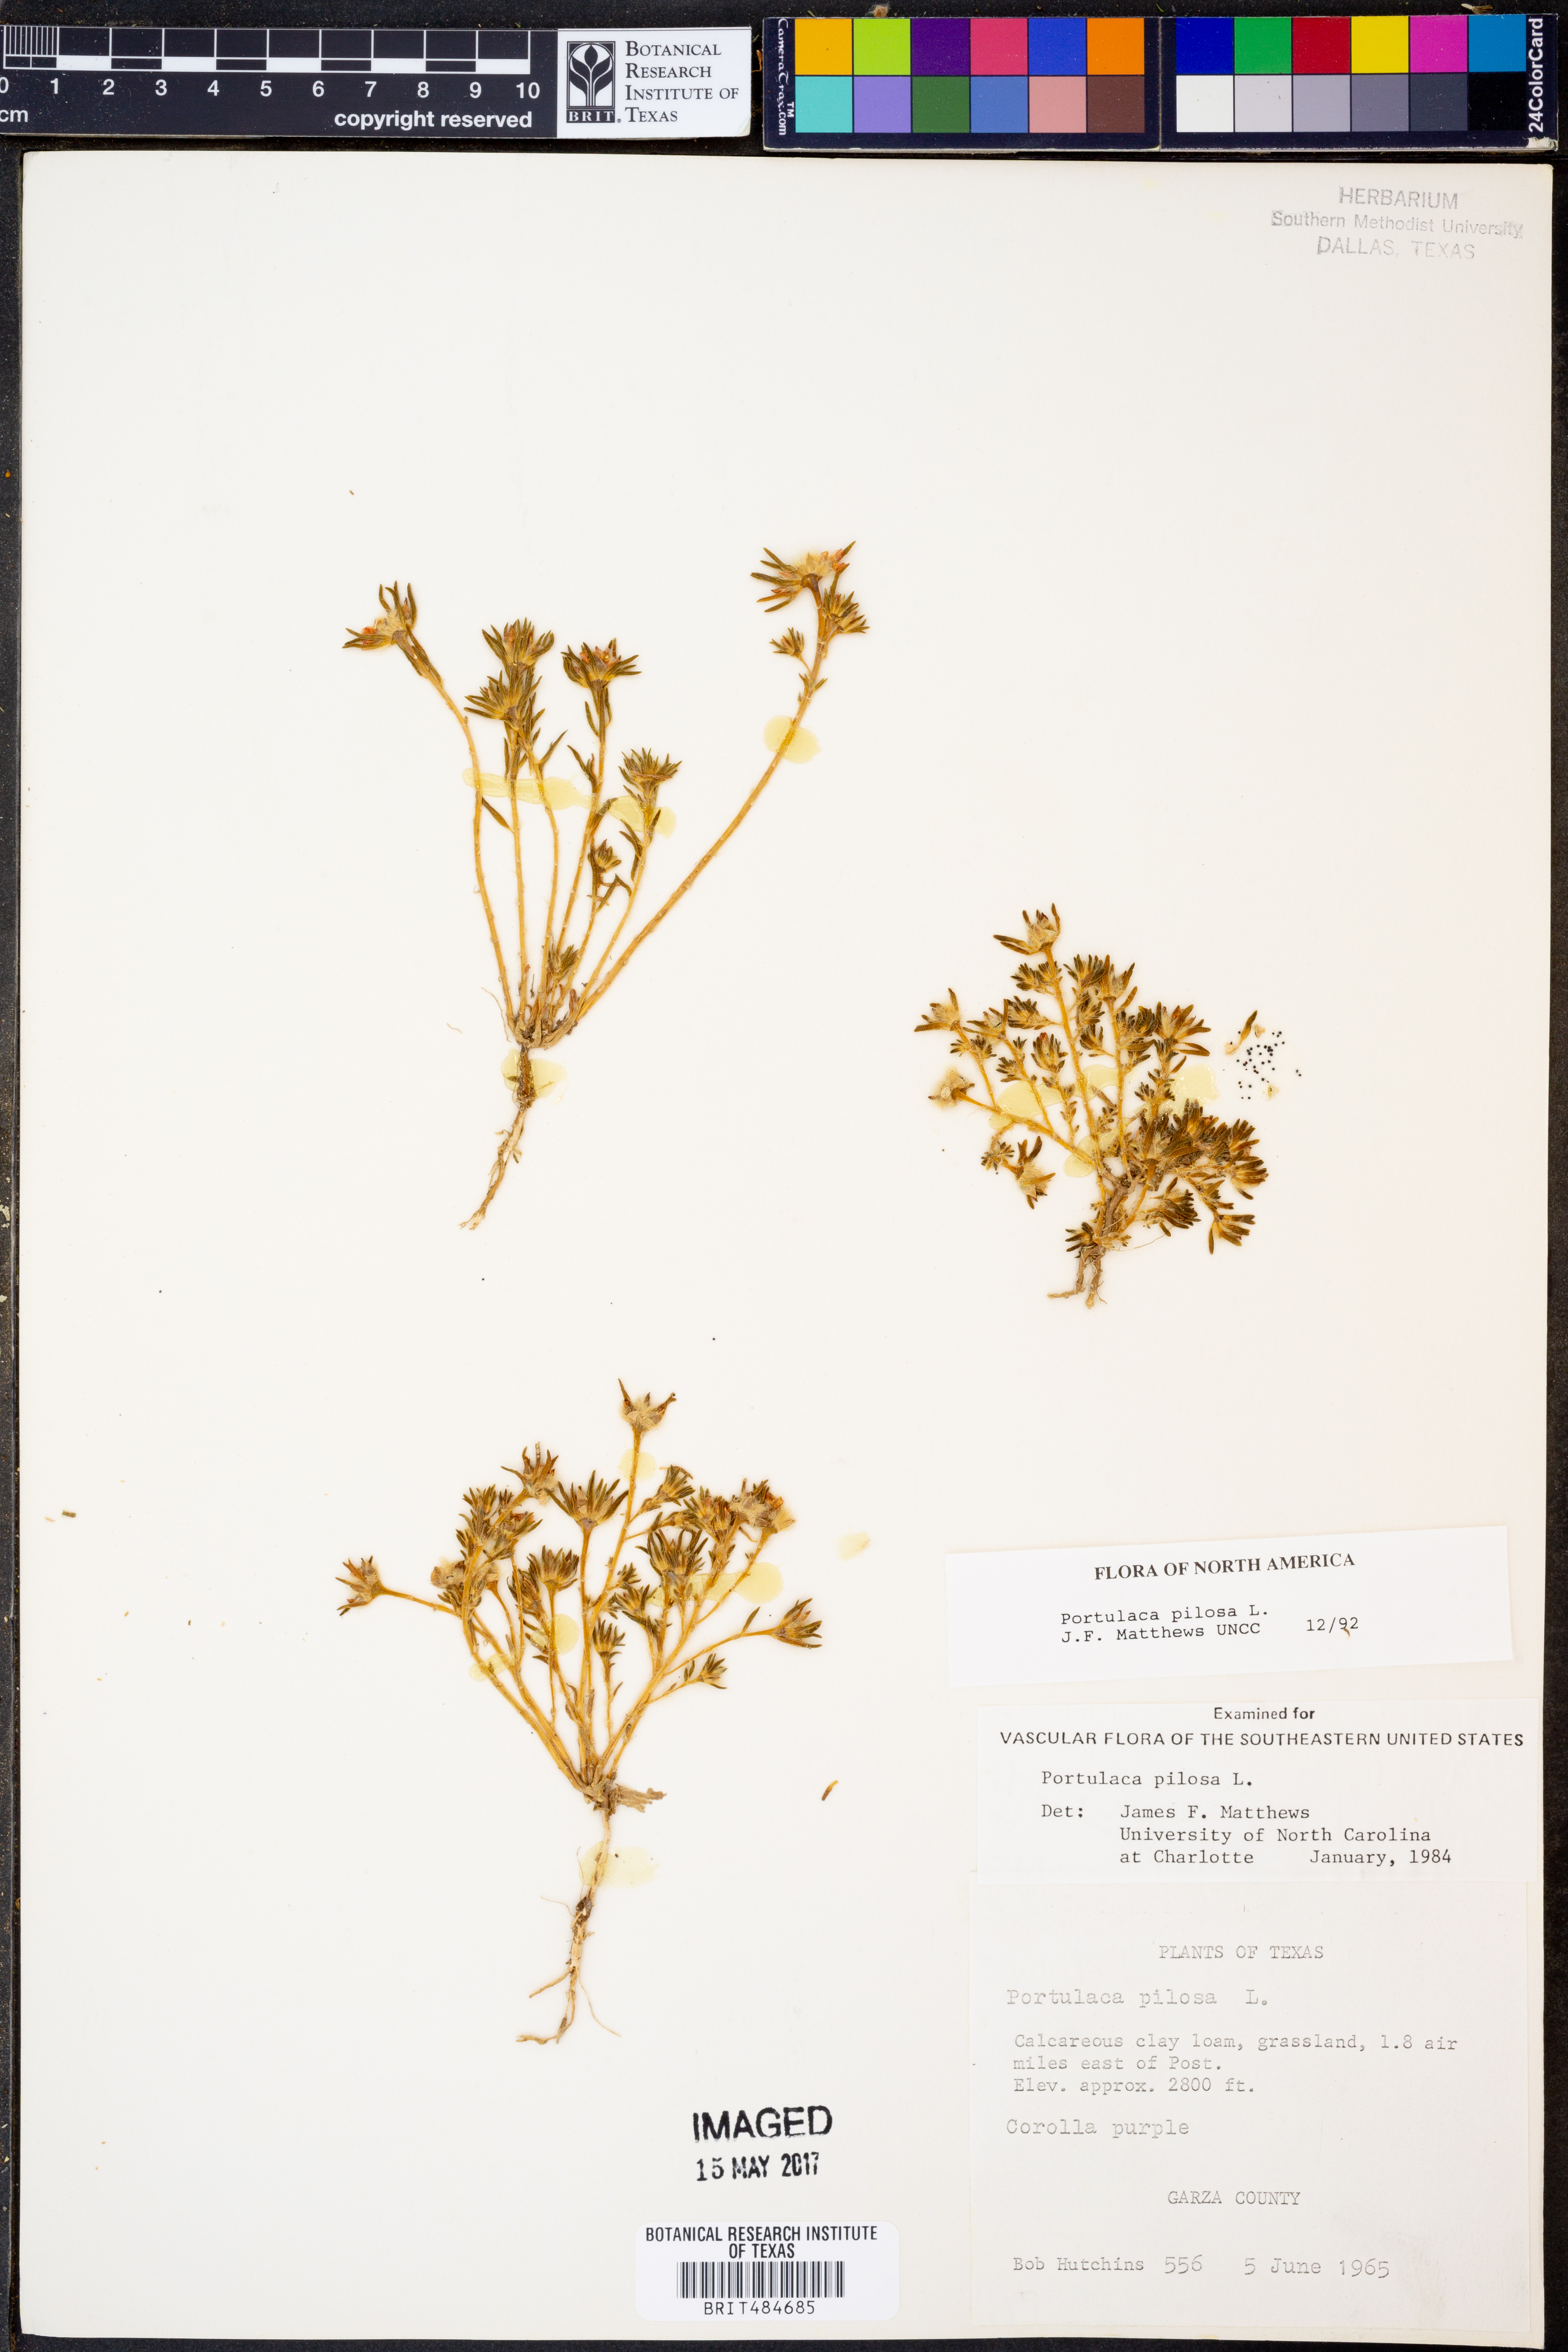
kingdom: Plantae
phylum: Tracheophyta
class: Magnoliopsida
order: Caryophyllales
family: Portulacaceae
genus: Portulaca
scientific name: Portulaca pilosa
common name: Kiss me quick
